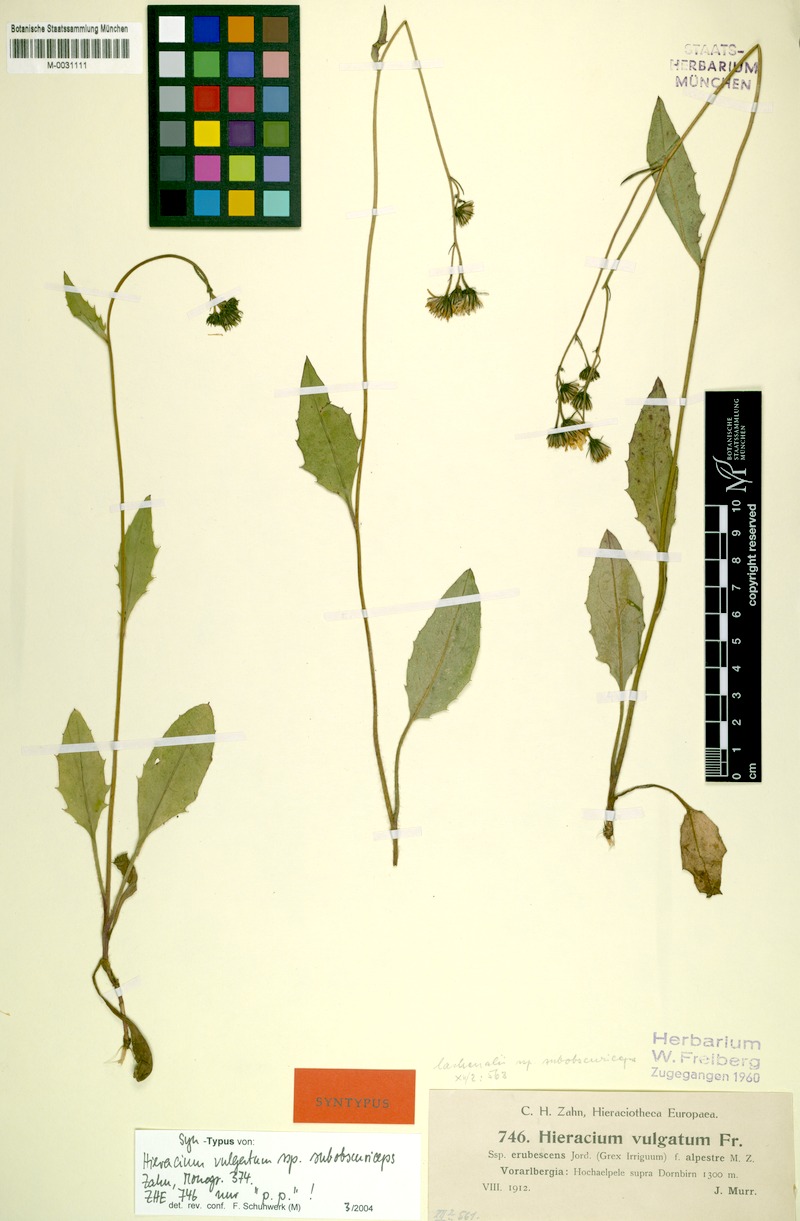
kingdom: Plantae
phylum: Tracheophyta
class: Magnoliopsida
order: Asterales
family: Asteraceae
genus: Hieracium
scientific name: Hieracium lachenalii
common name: Common hawkweed
